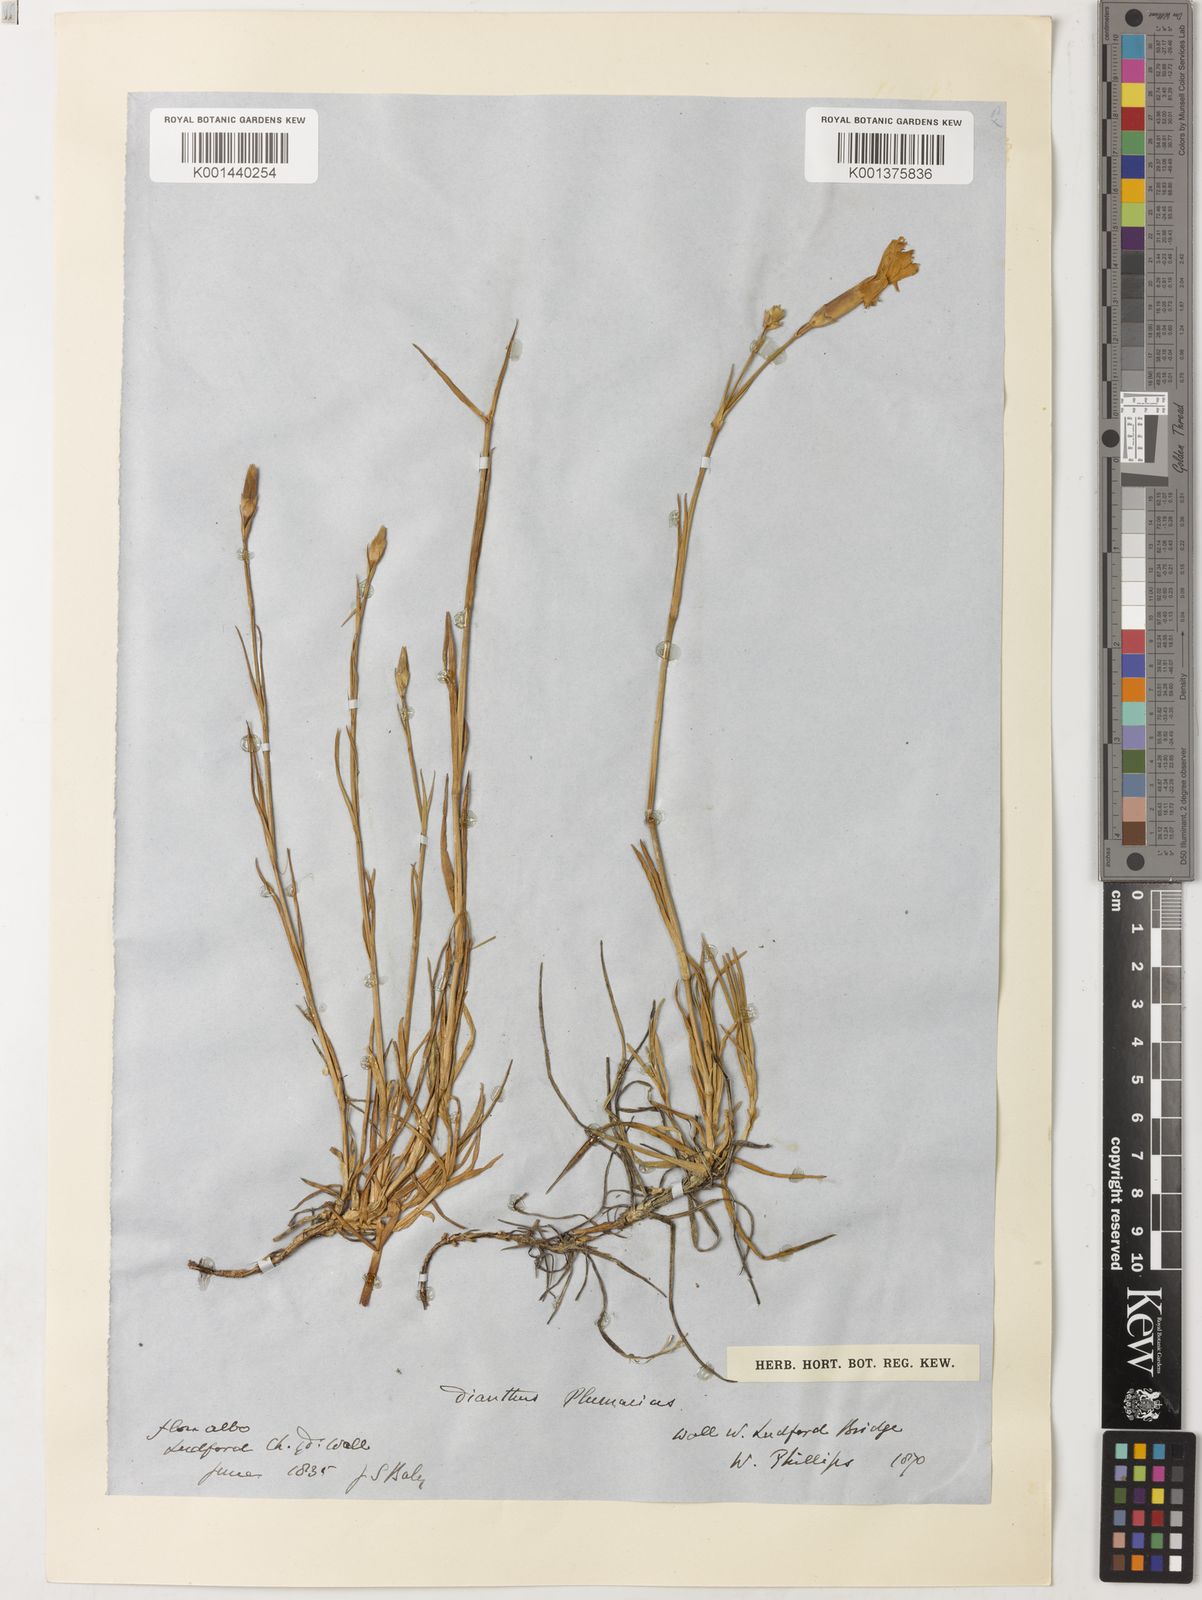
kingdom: Plantae
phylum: Tracheophyta
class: Magnoliopsida
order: Caryophyllales
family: Caryophyllaceae
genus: Dianthus
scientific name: Dianthus plumarius
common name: Pink
